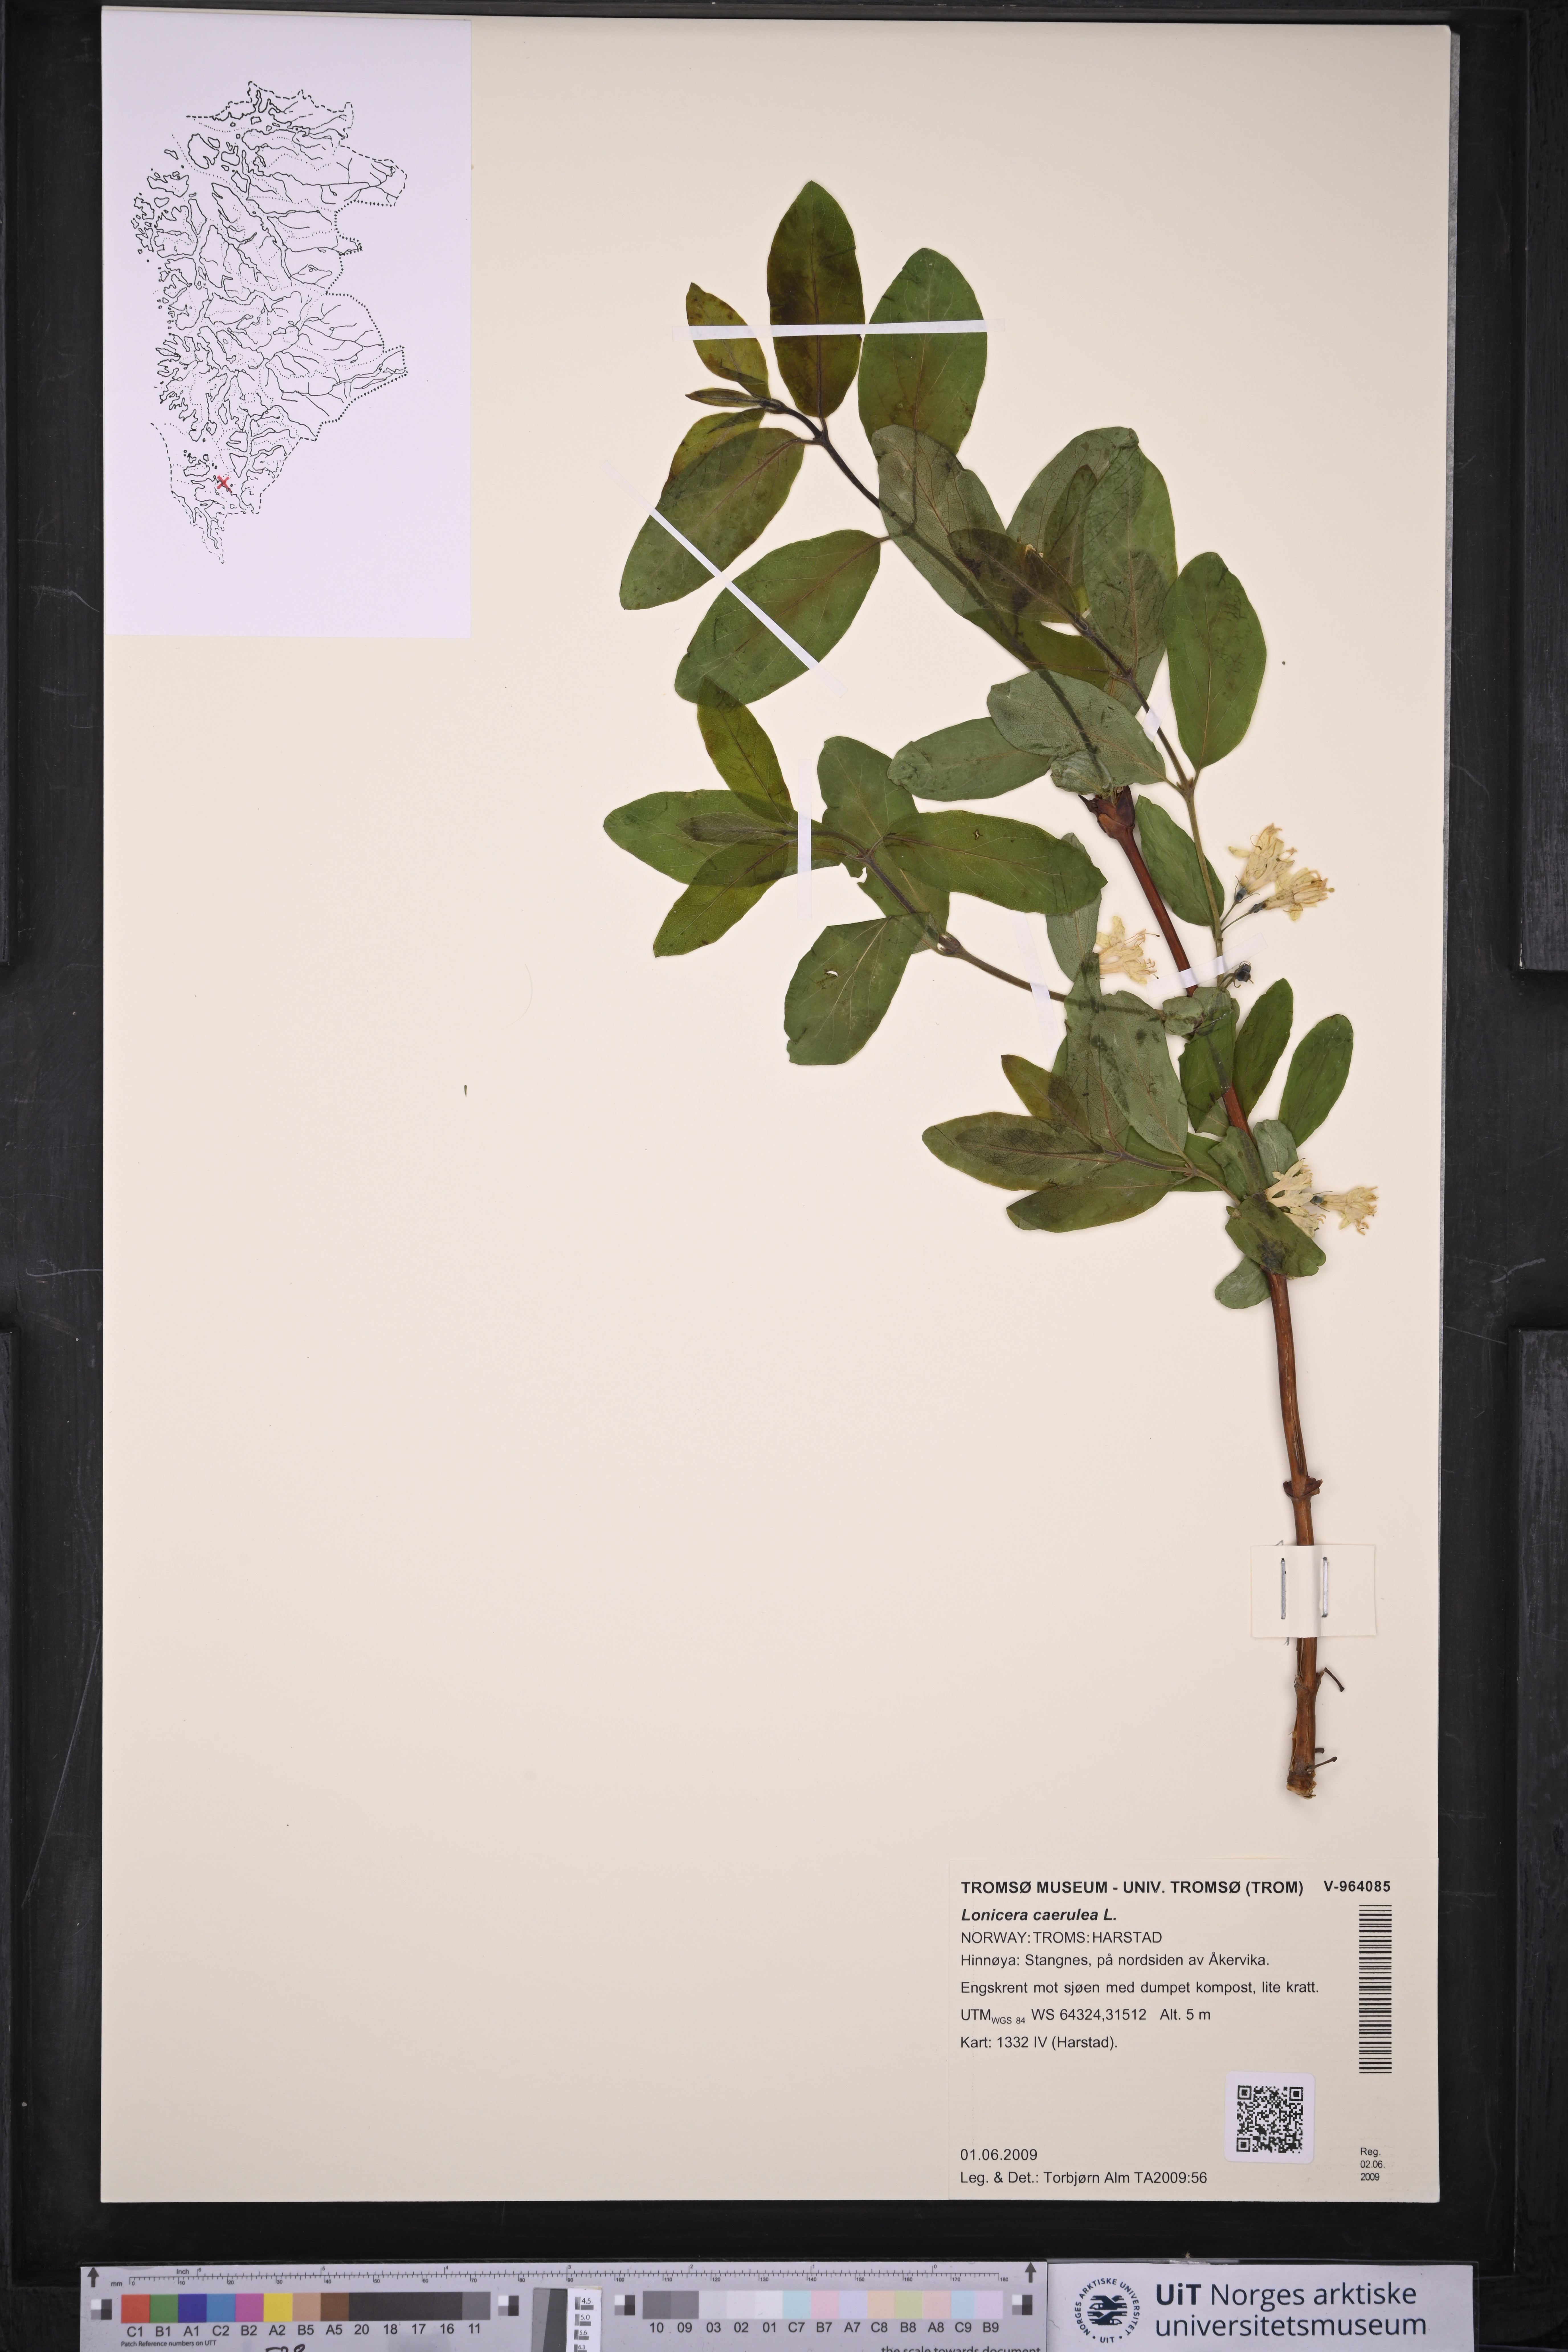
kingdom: Plantae
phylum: Tracheophyta
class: Magnoliopsida
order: Dipsacales
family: Caprifoliaceae
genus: Lonicera
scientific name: Lonicera caerulea
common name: Blue honeysuckle
